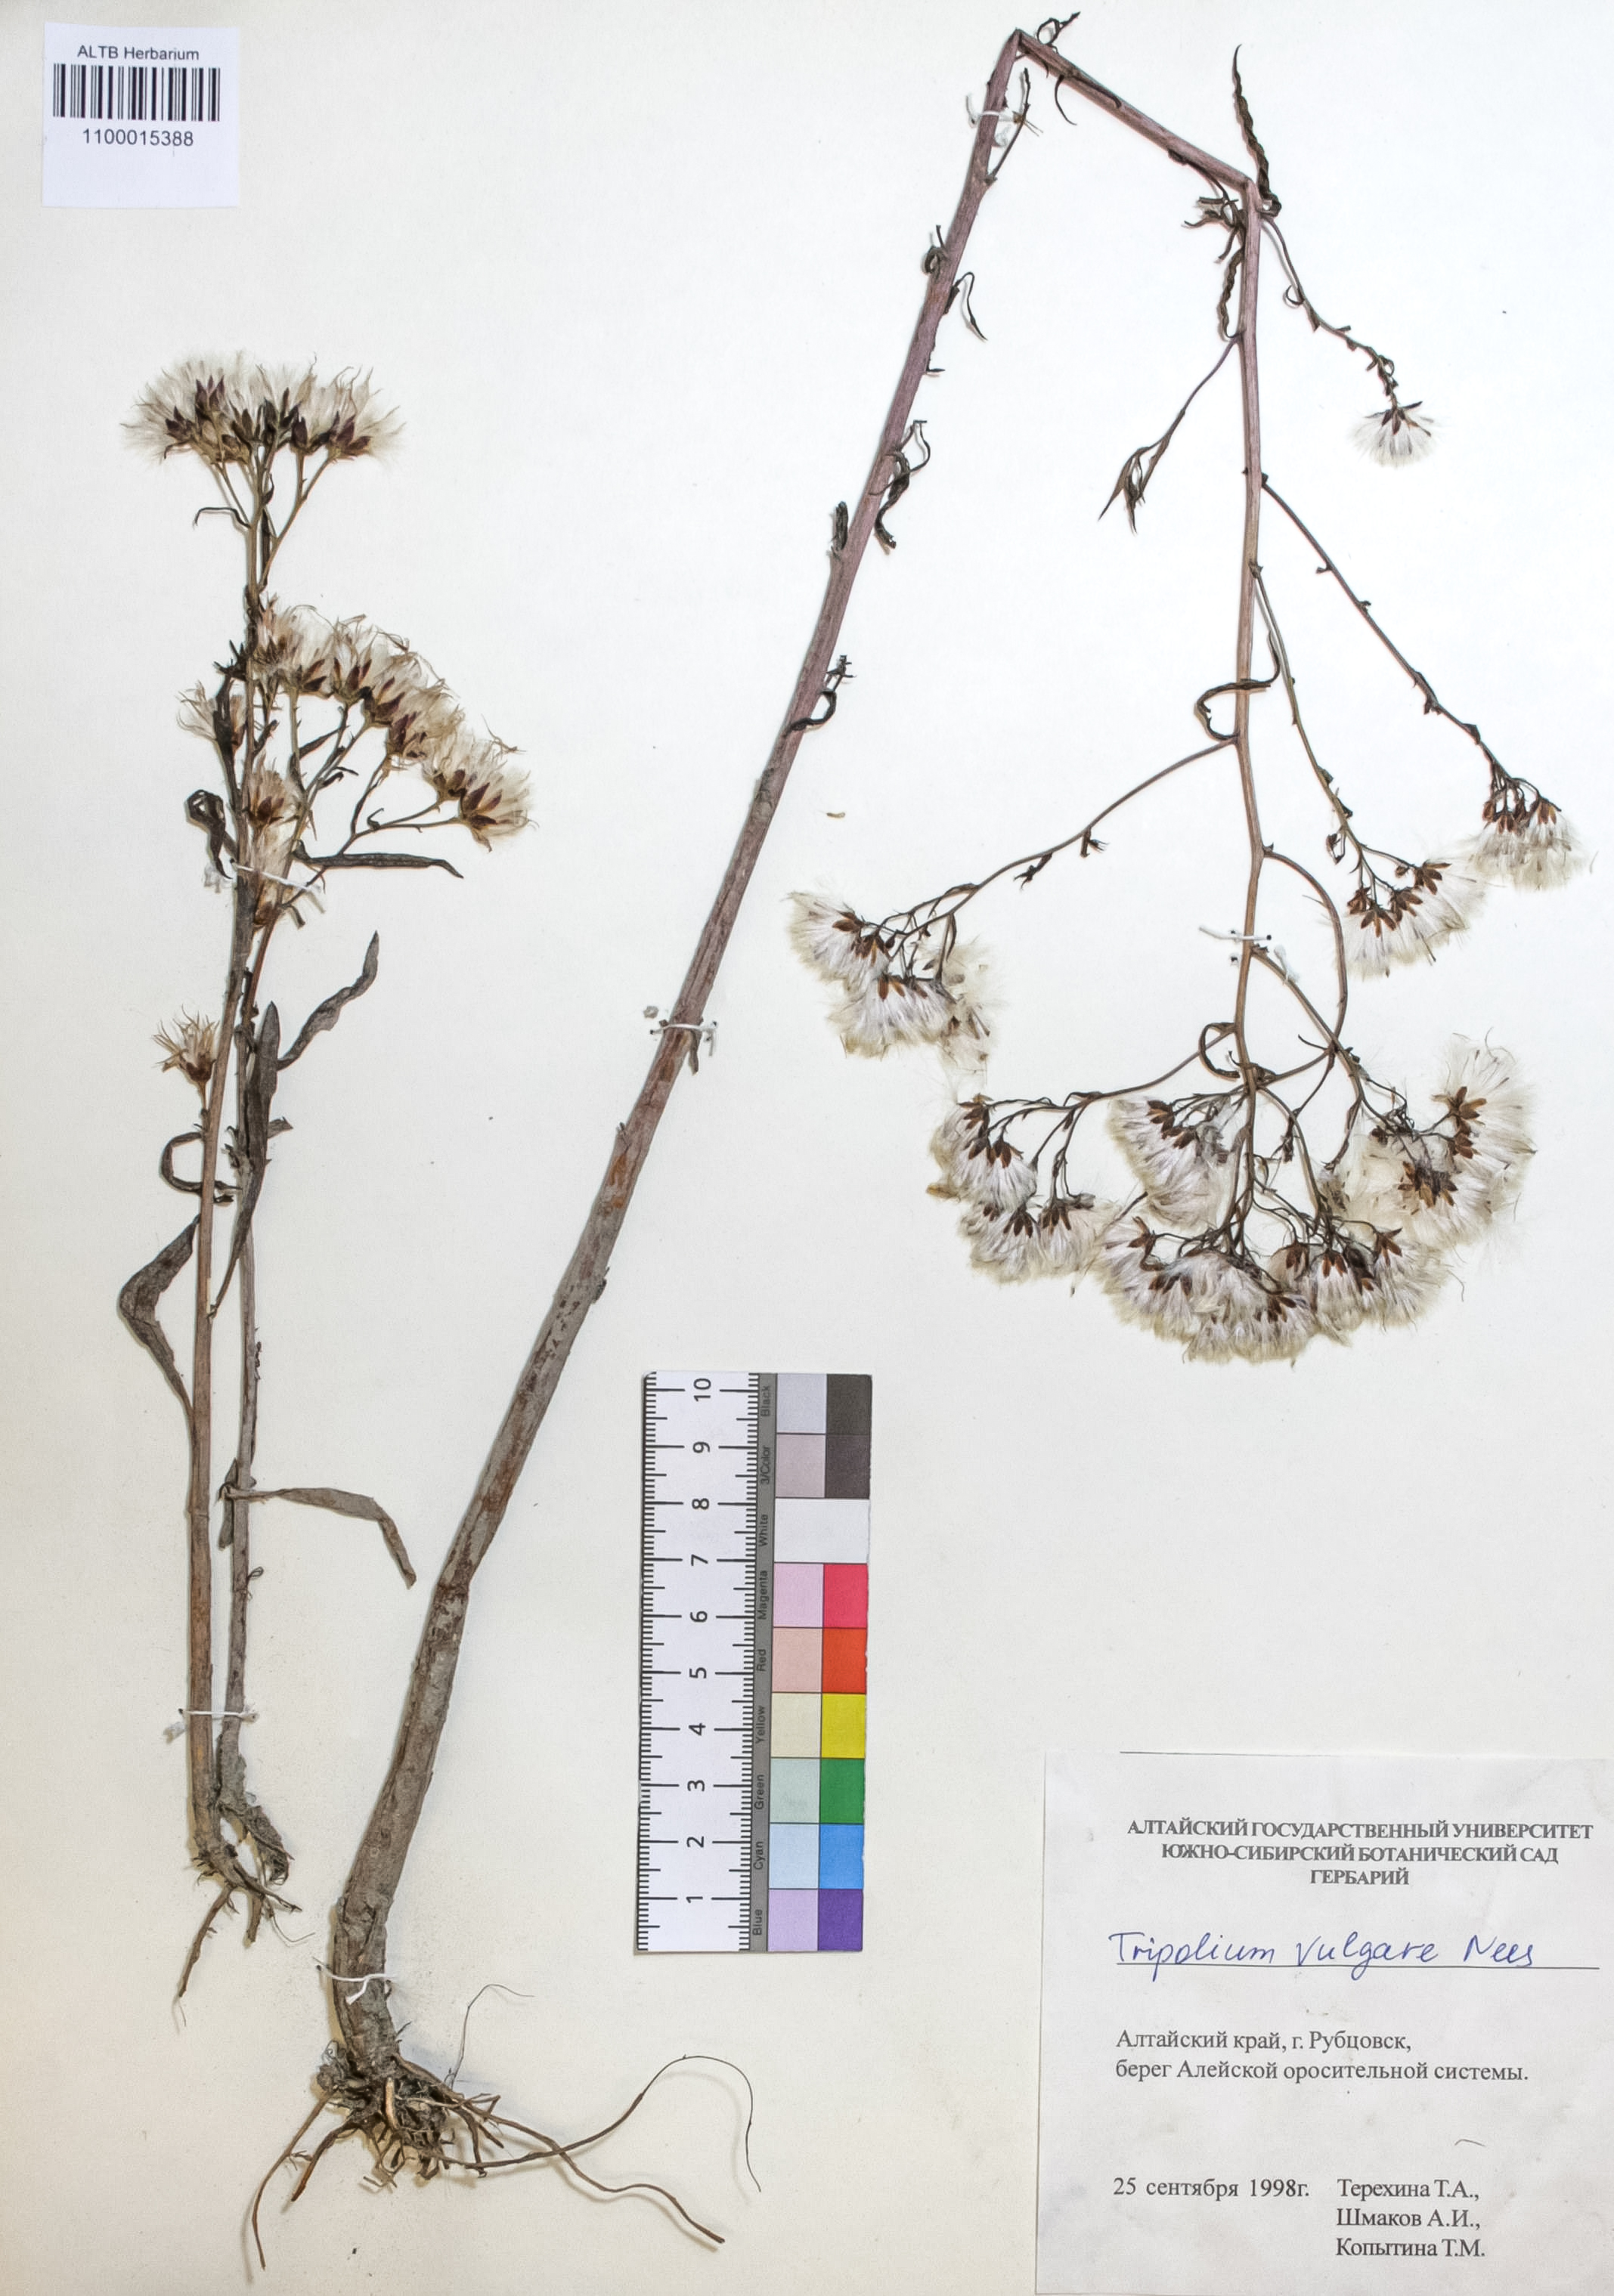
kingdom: Plantae
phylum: Tracheophyta
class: Magnoliopsida
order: Asterales
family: Asteraceae
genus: Tripolium
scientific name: Tripolium pannonicum
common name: Sea aster
